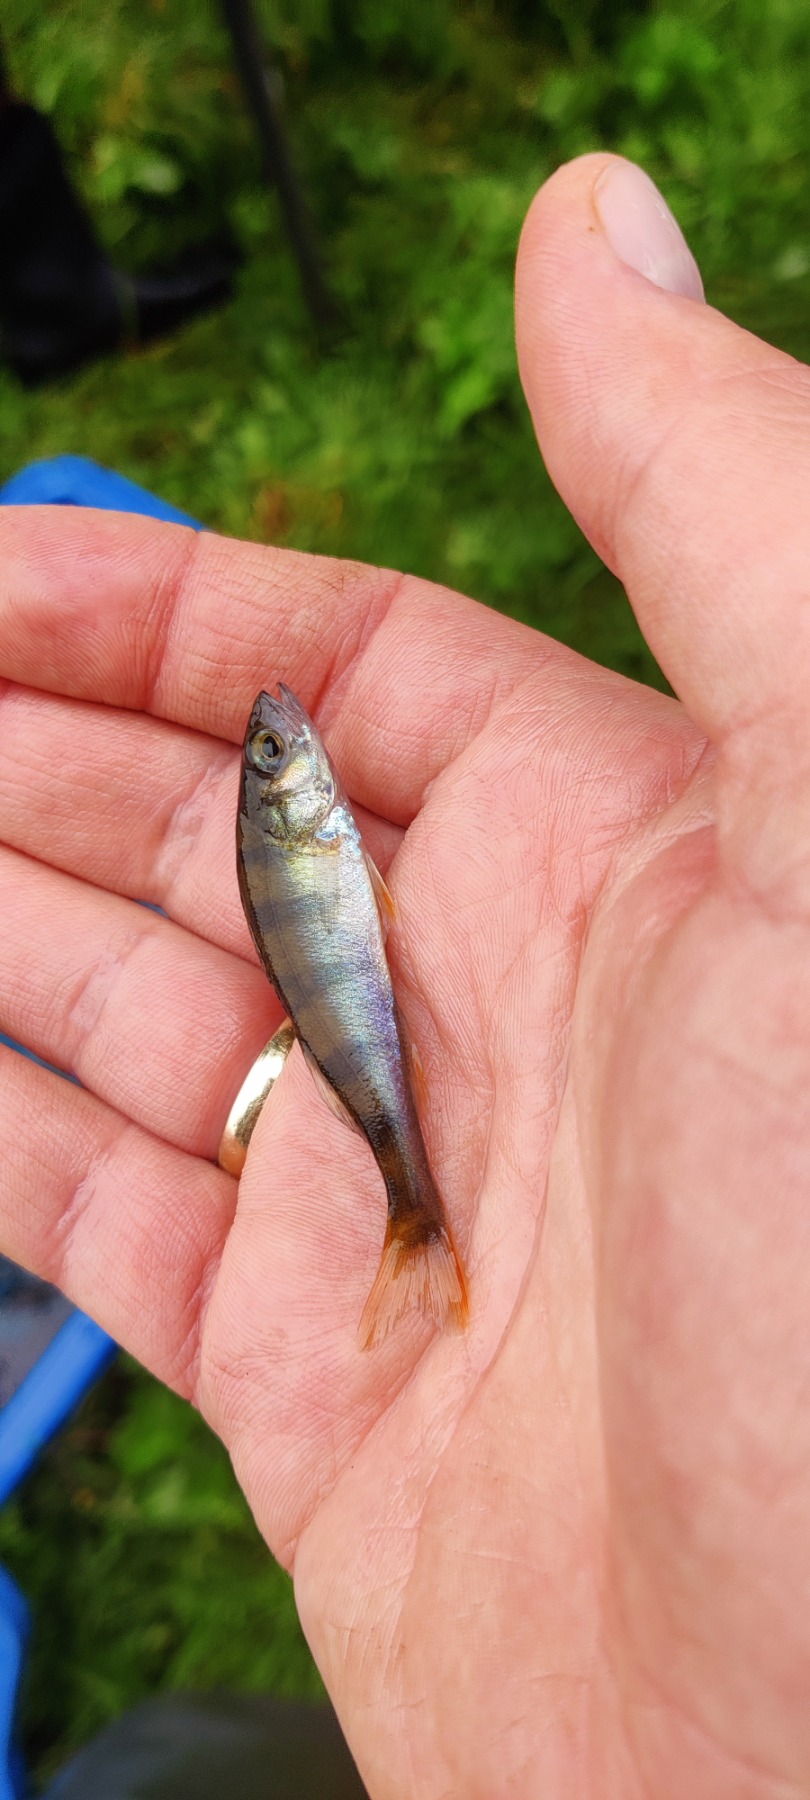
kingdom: Animalia
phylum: Chordata
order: Perciformes
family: Percidae
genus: Perca
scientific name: Perca fluviatilis
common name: Aborre
